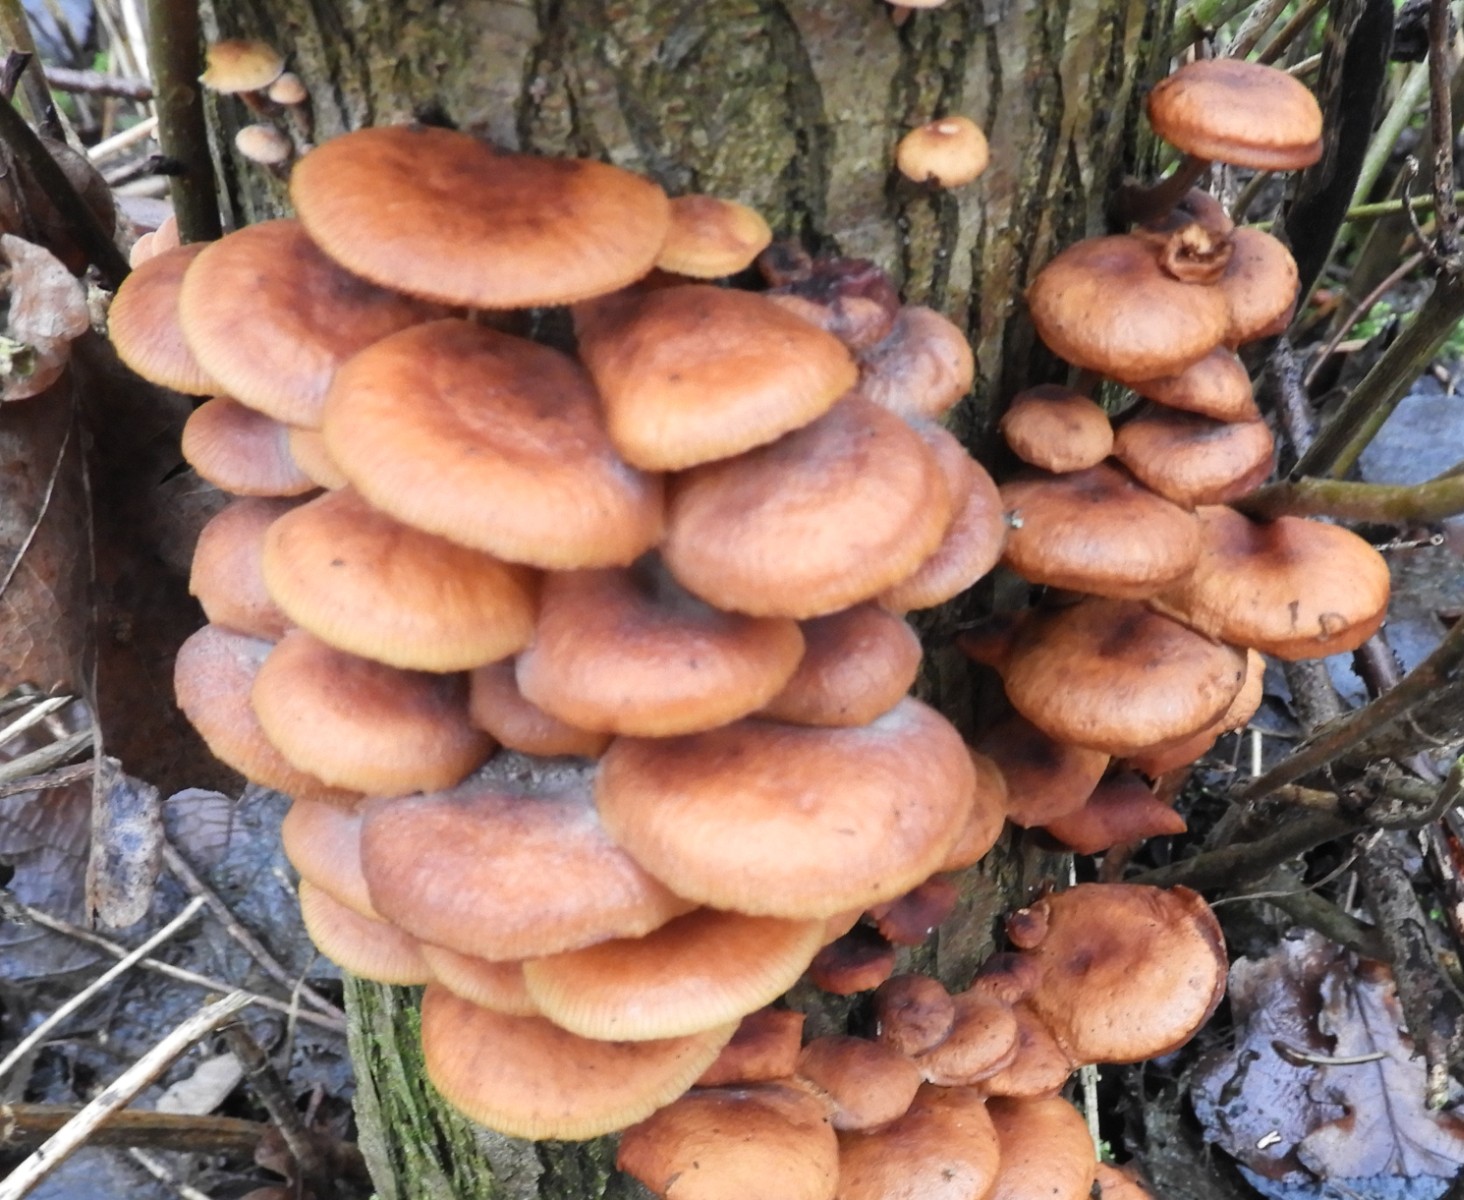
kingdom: Fungi
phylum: Basidiomycota
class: Agaricomycetes
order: Agaricales
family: Physalacriaceae
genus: Flammulina
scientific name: Flammulina
